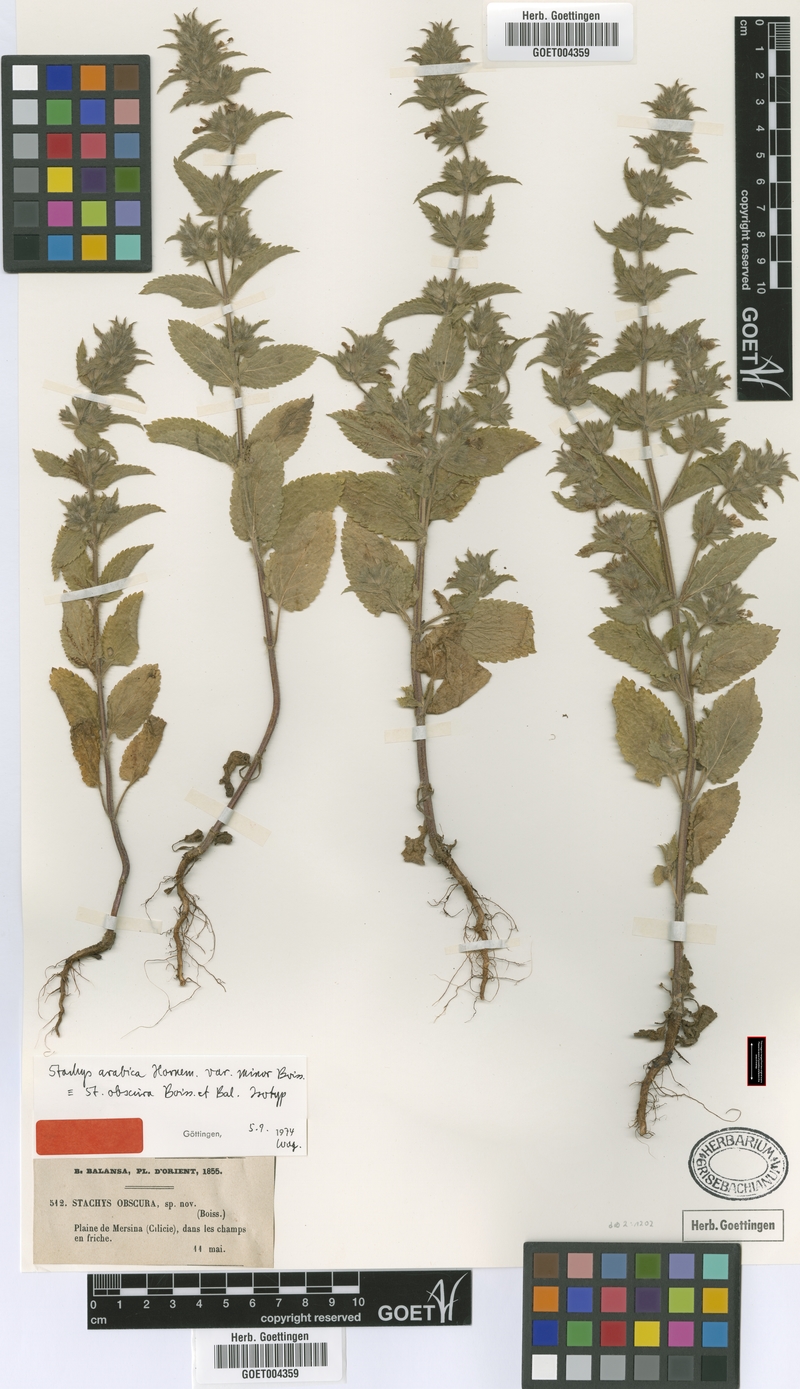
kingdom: Plantae
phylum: Tracheophyta
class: Magnoliopsida
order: Lamiales
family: Lamiaceae
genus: Stachys
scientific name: Stachys arabica
